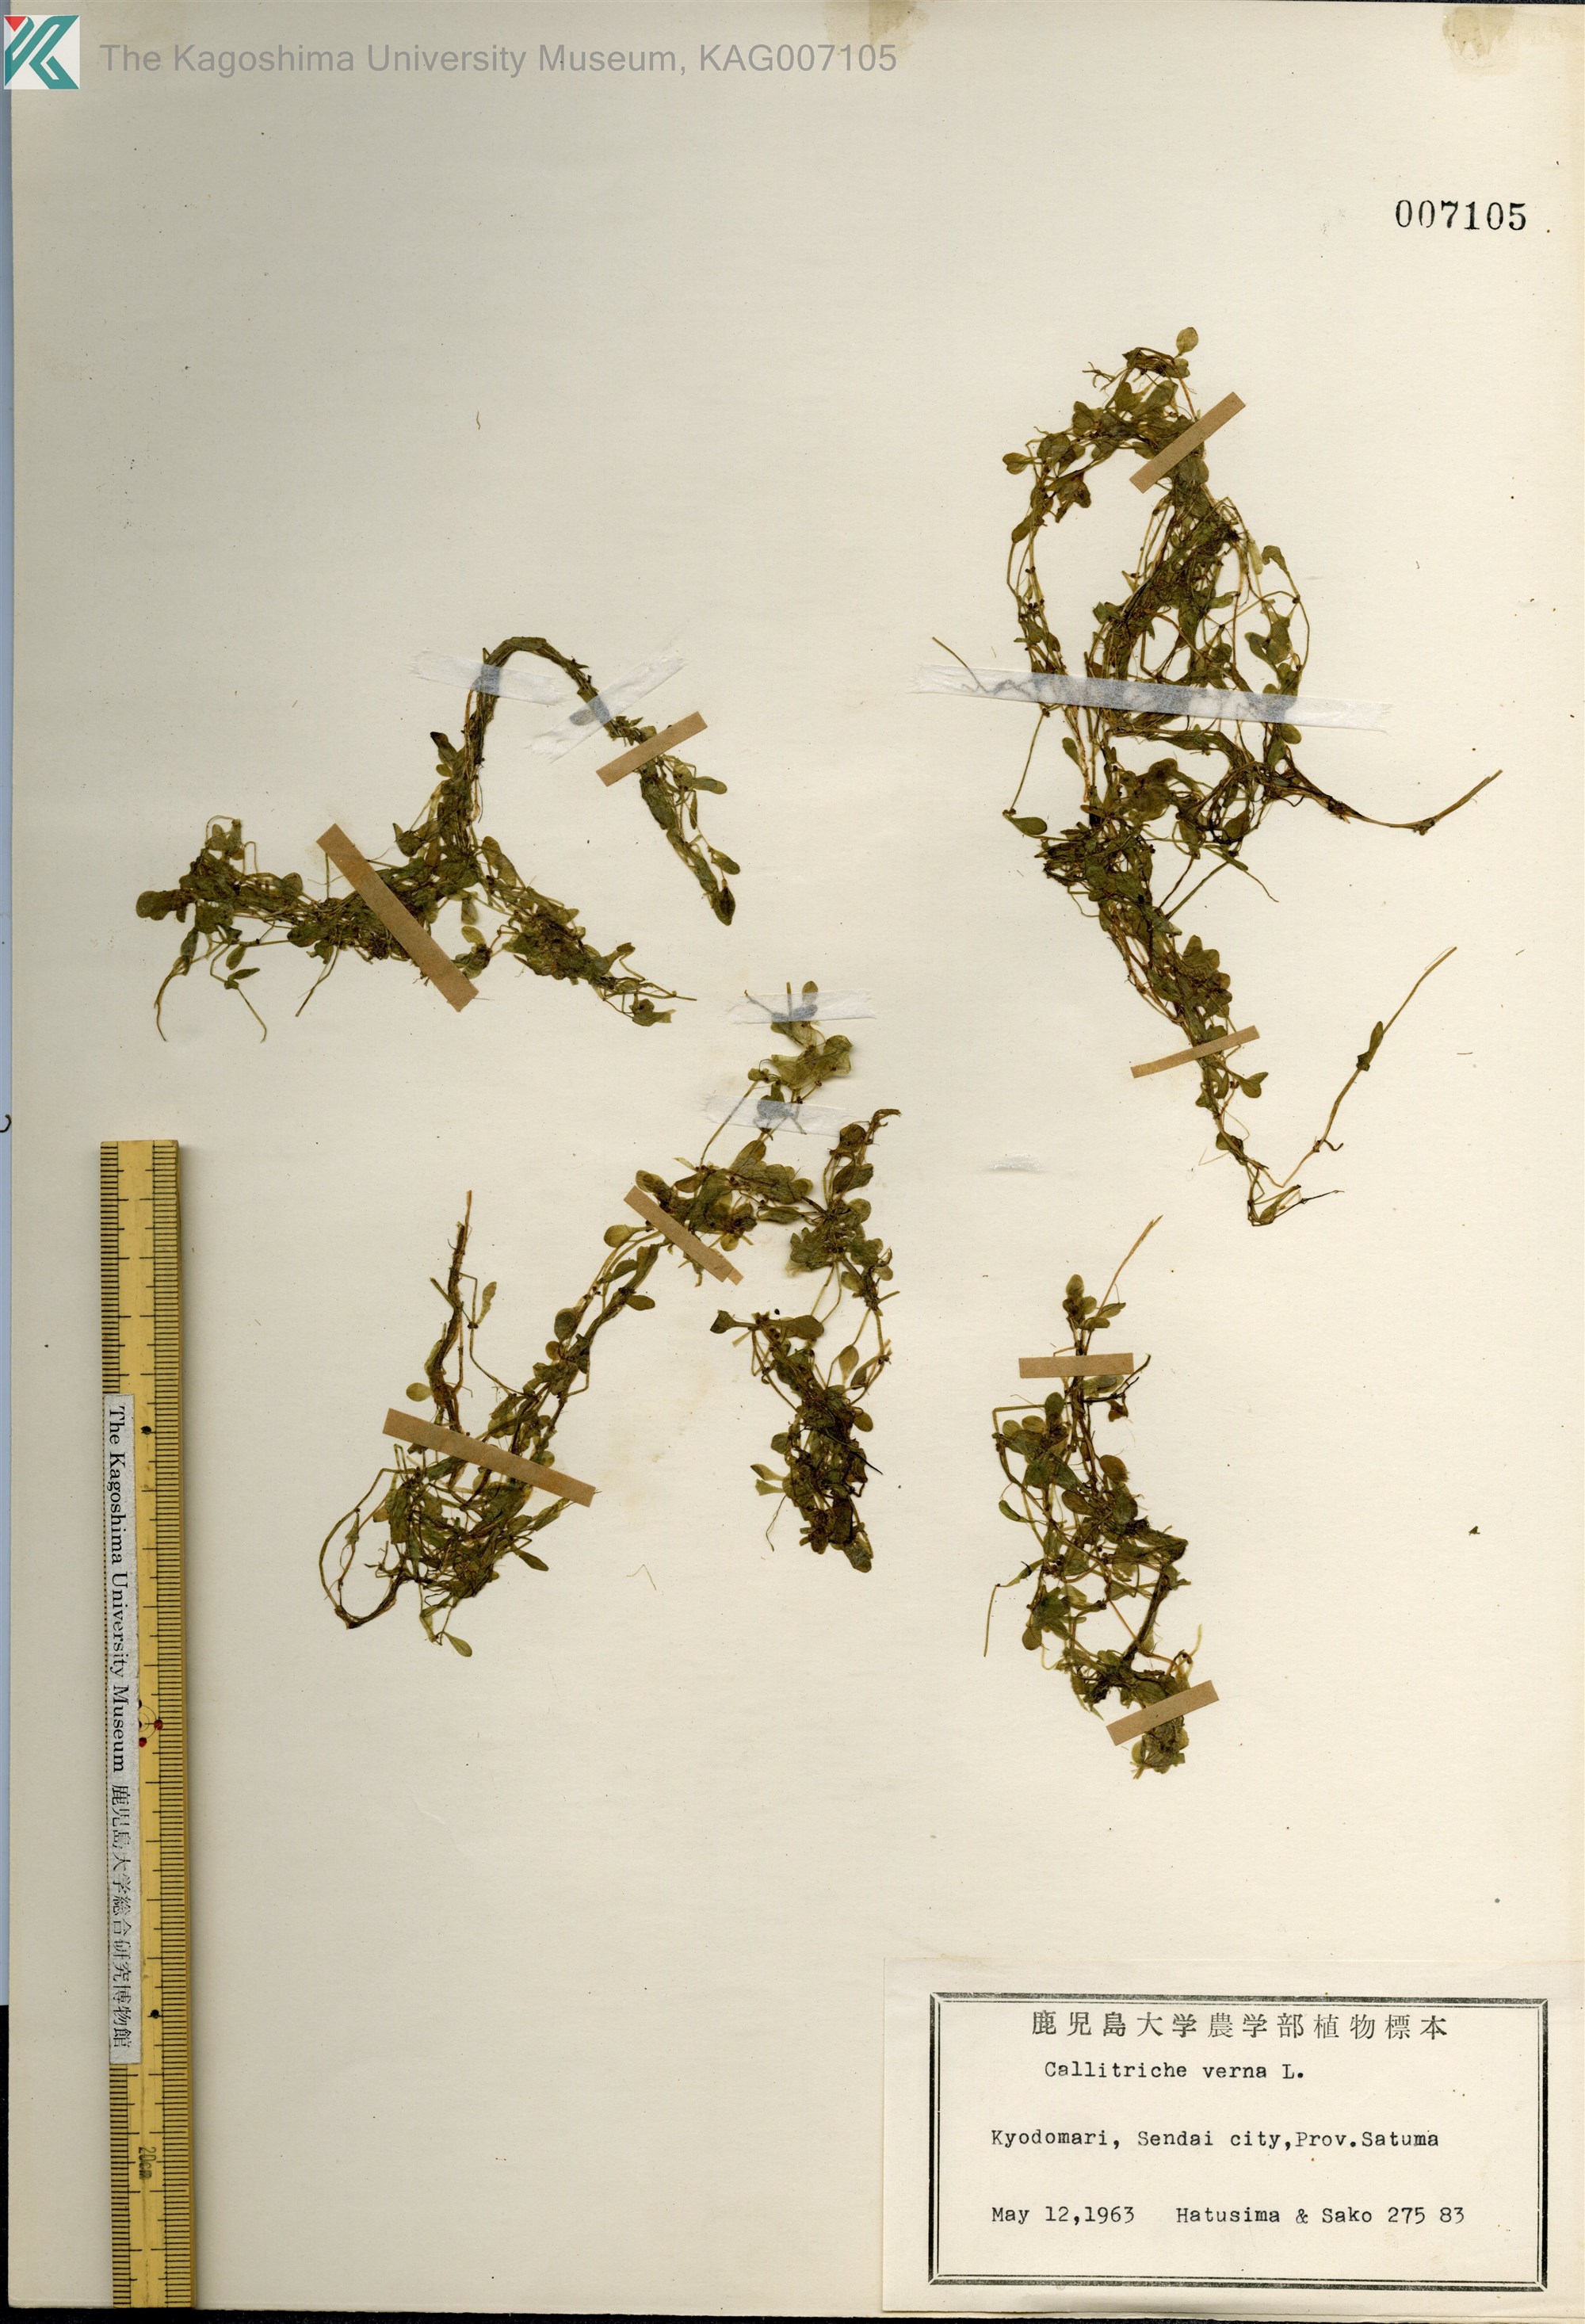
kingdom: Plantae
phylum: Tracheophyta
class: Magnoliopsida
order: Lamiales
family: Plantaginaceae
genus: Callitriche
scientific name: Callitriche palustris
